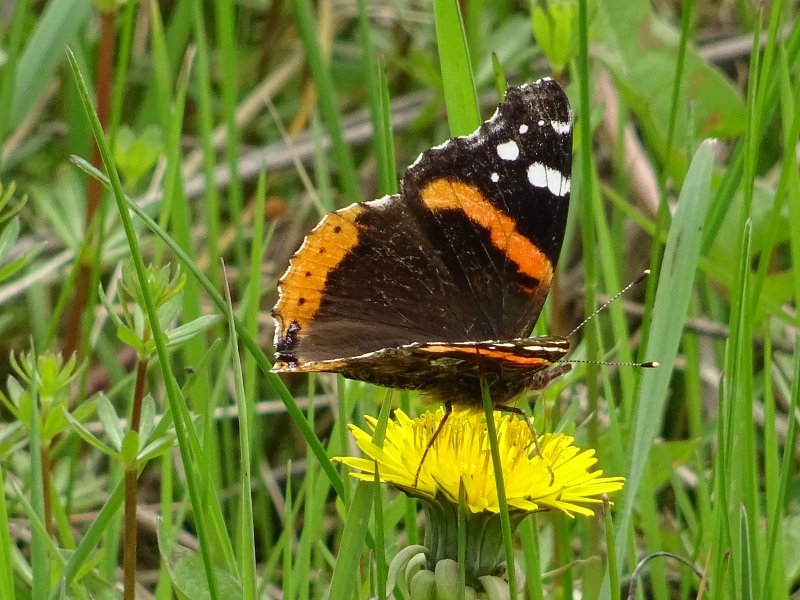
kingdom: Animalia
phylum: Arthropoda
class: Insecta
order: Lepidoptera
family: Nymphalidae
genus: Vanessa
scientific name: Vanessa atalanta
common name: Red Admiral
